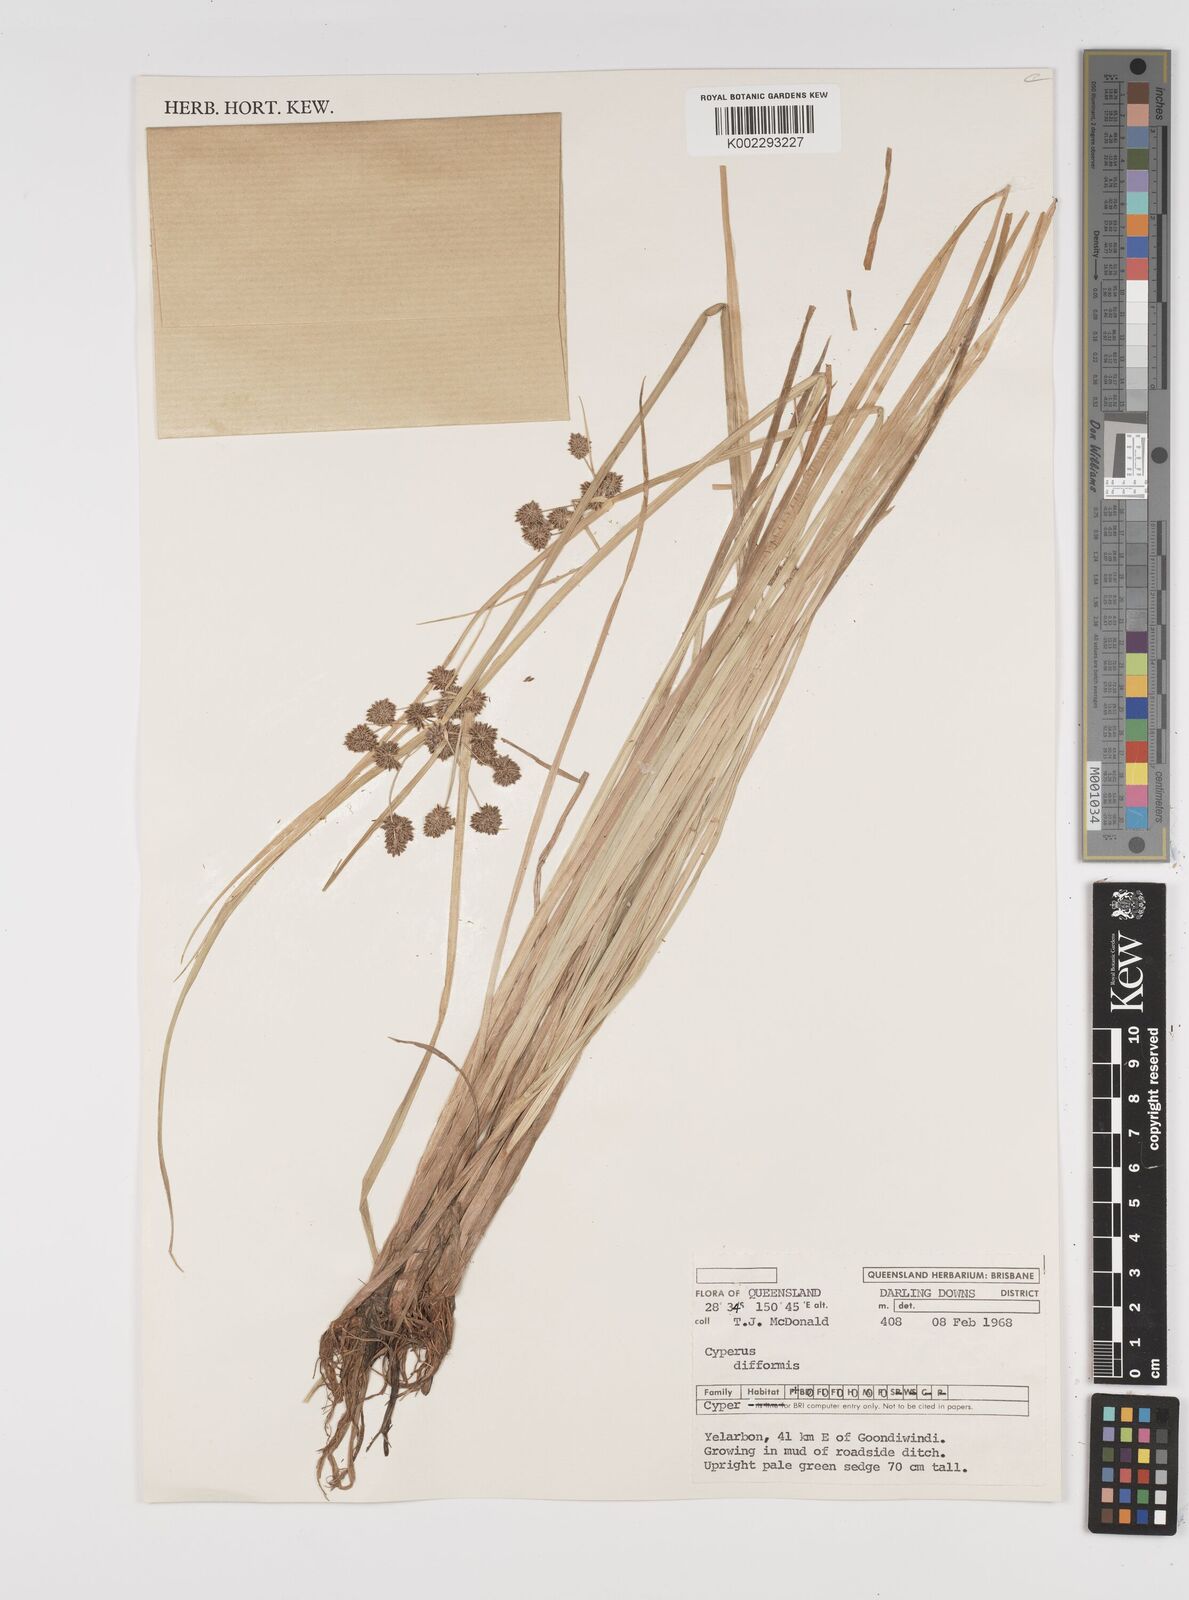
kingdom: Plantae
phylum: Tracheophyta
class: Liliopsida
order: Poales
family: Cyperaceae
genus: Cyperus
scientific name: Cyperus difformis
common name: Variable flatsedge
